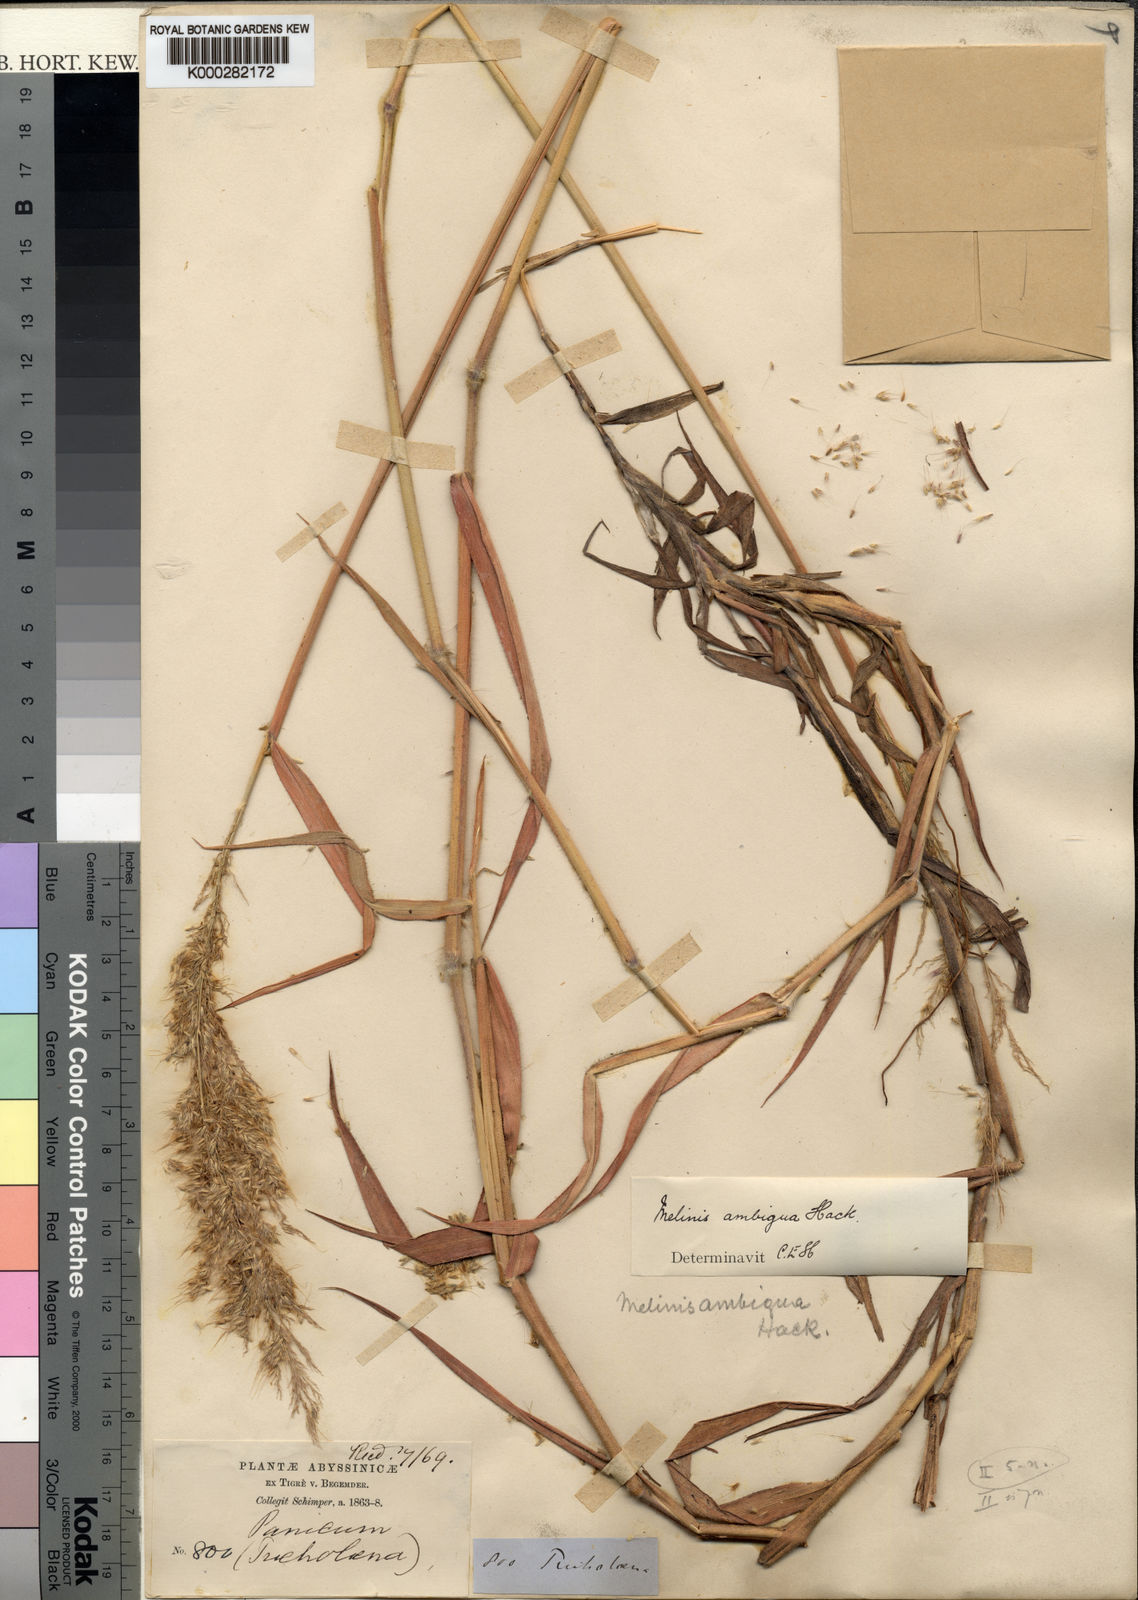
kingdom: Plantae
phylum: Tracheophyta
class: Liliopsida
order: Poales
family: Poaceae
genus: Melinis
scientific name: Melinis ambigua
